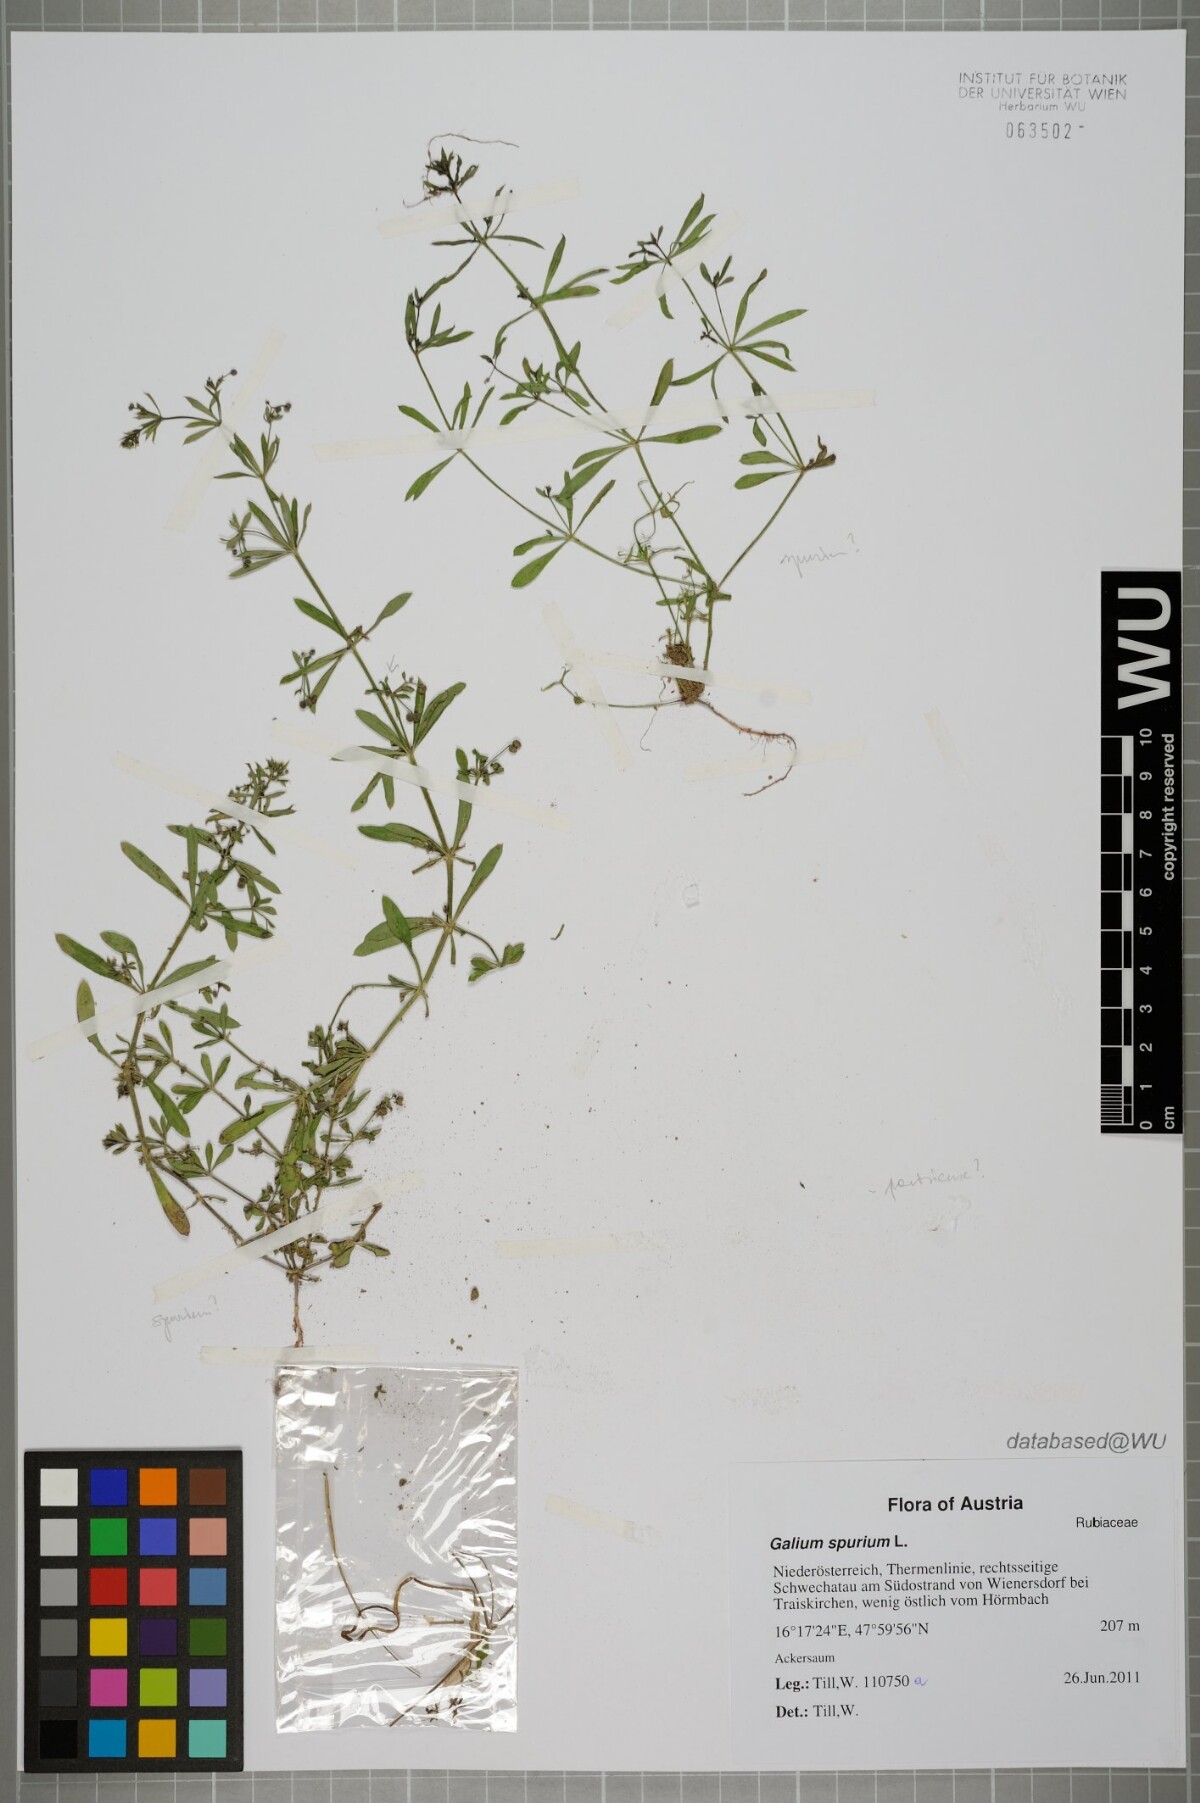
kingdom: Plantae
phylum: Tracheophyta
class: Magnoliopsida
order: Gentianales
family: Rubiaceae
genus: Galium
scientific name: Galium spurium
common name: False cleavers
